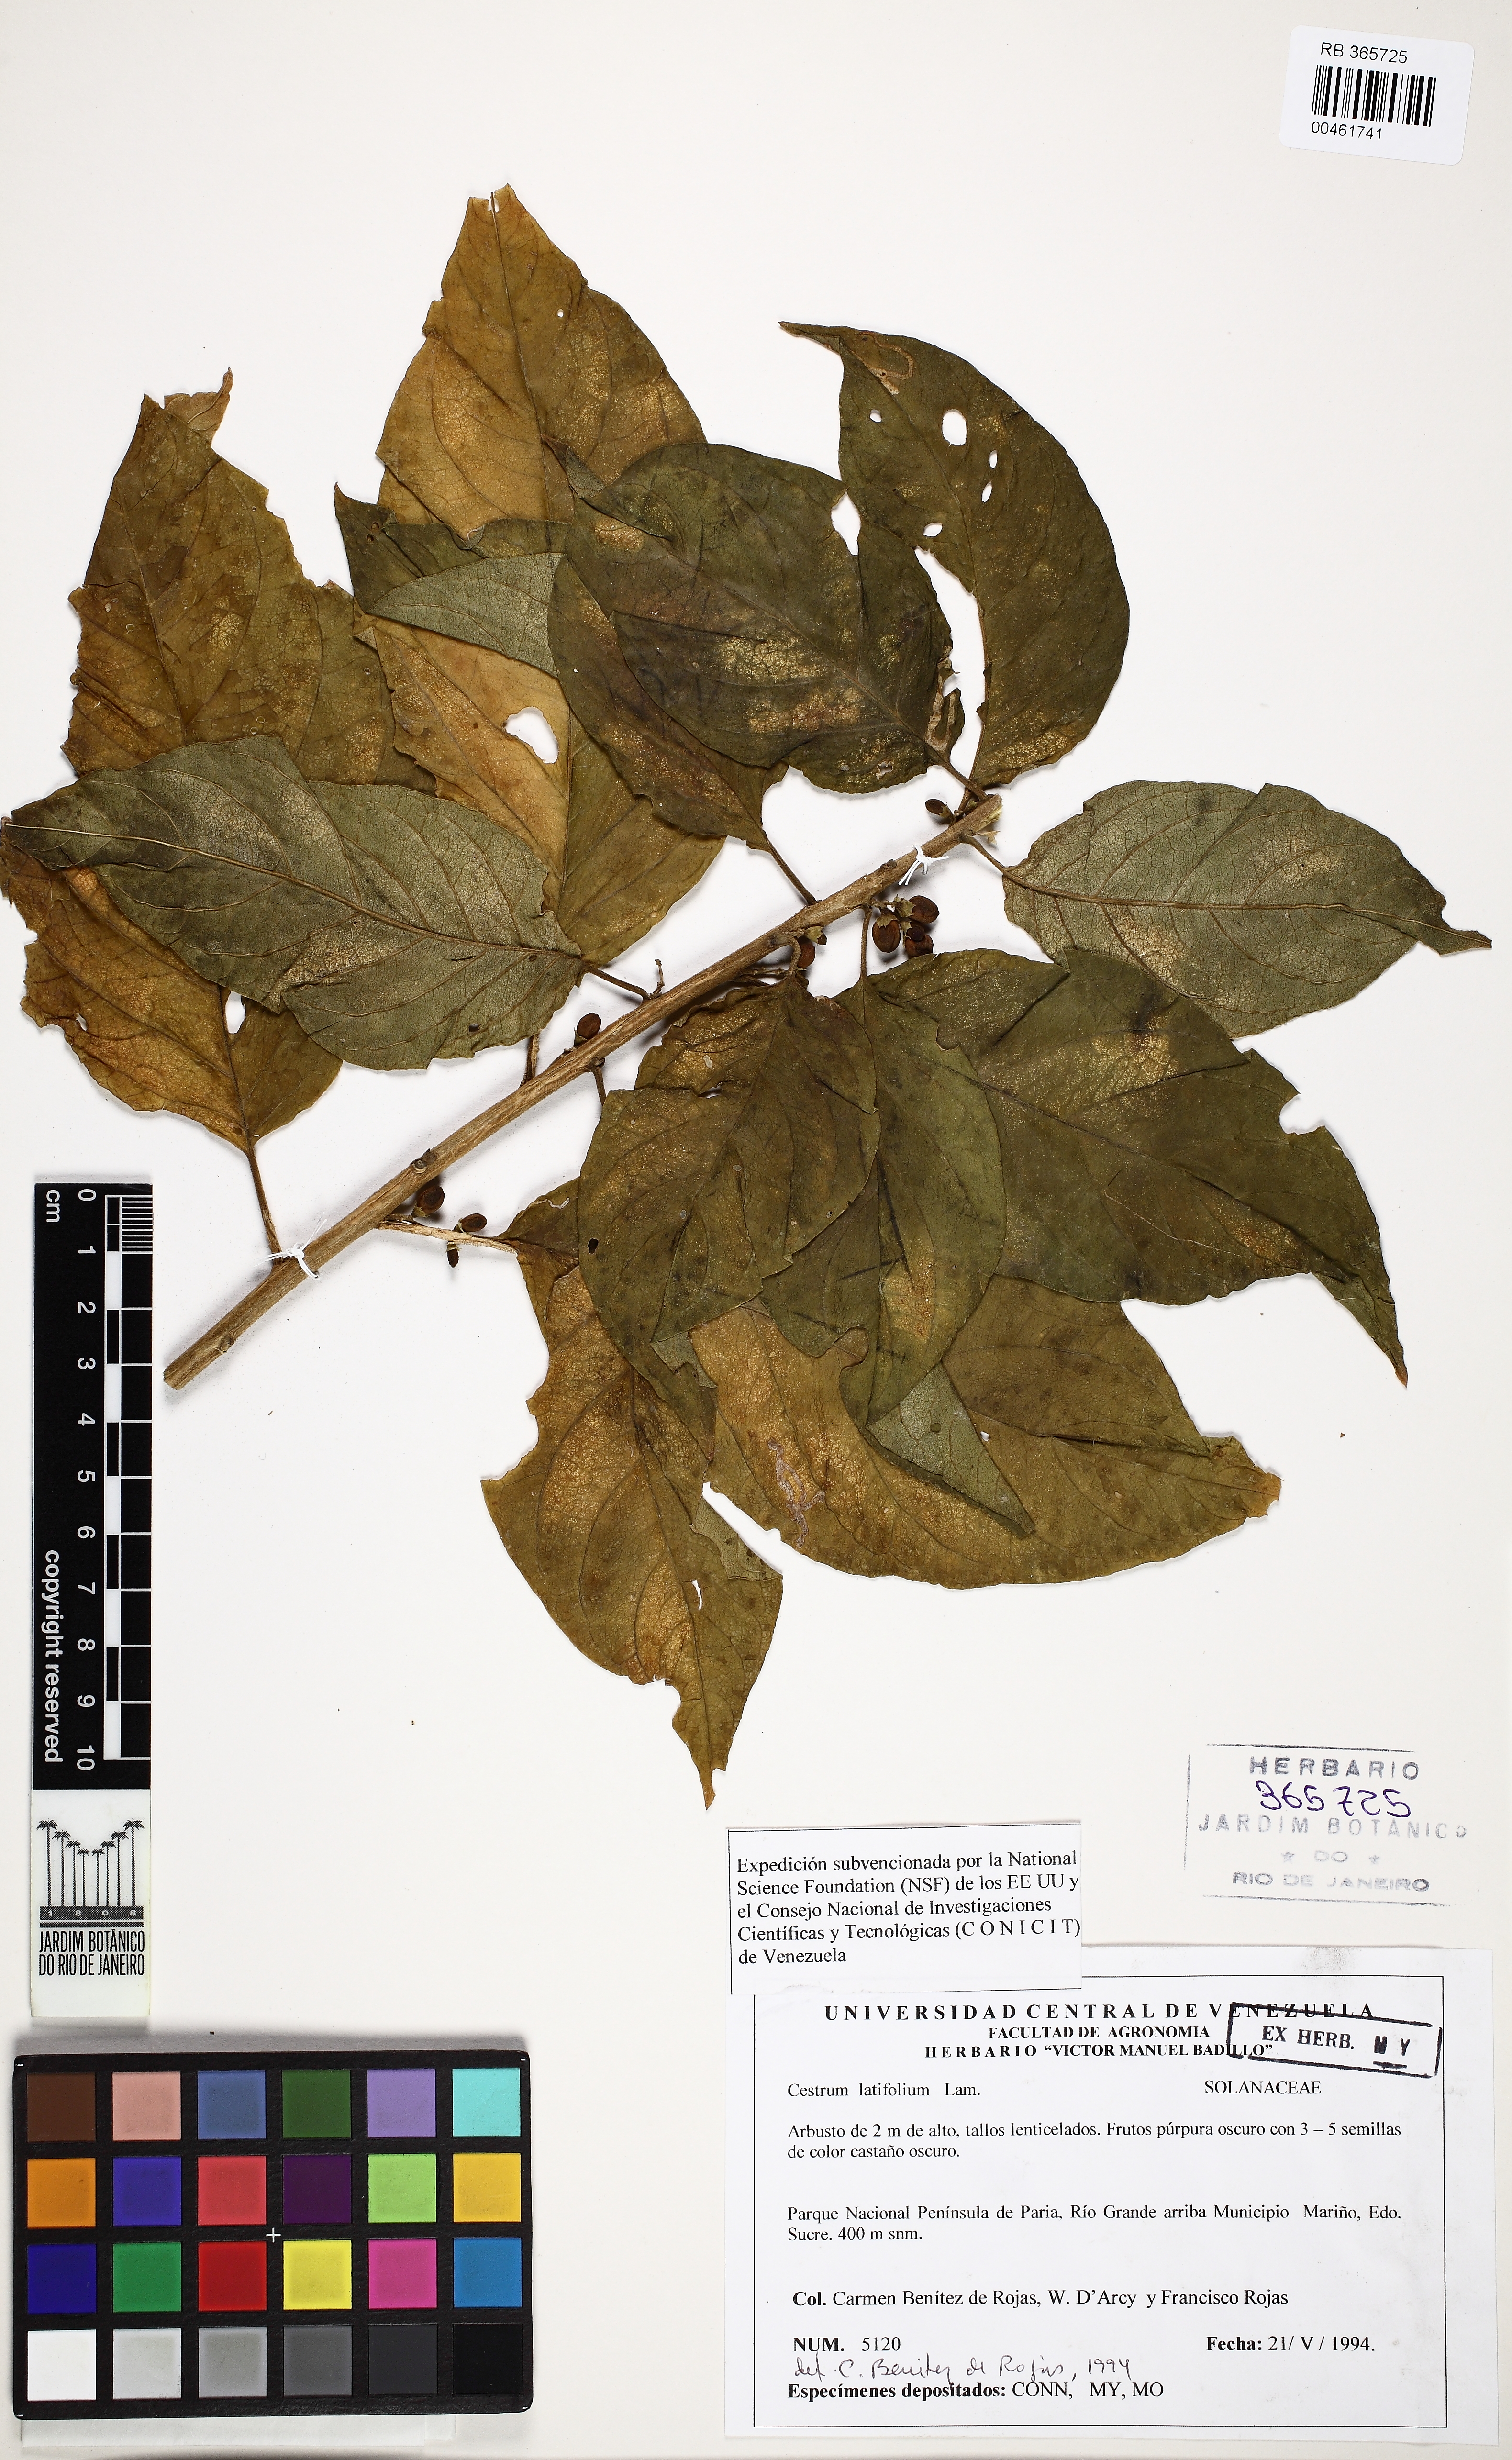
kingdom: Plantae
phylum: Tracheophyta
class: Magnoliopsida
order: Solanales
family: Solanaceae
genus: Cestrum
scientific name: Cestrum latifolium
